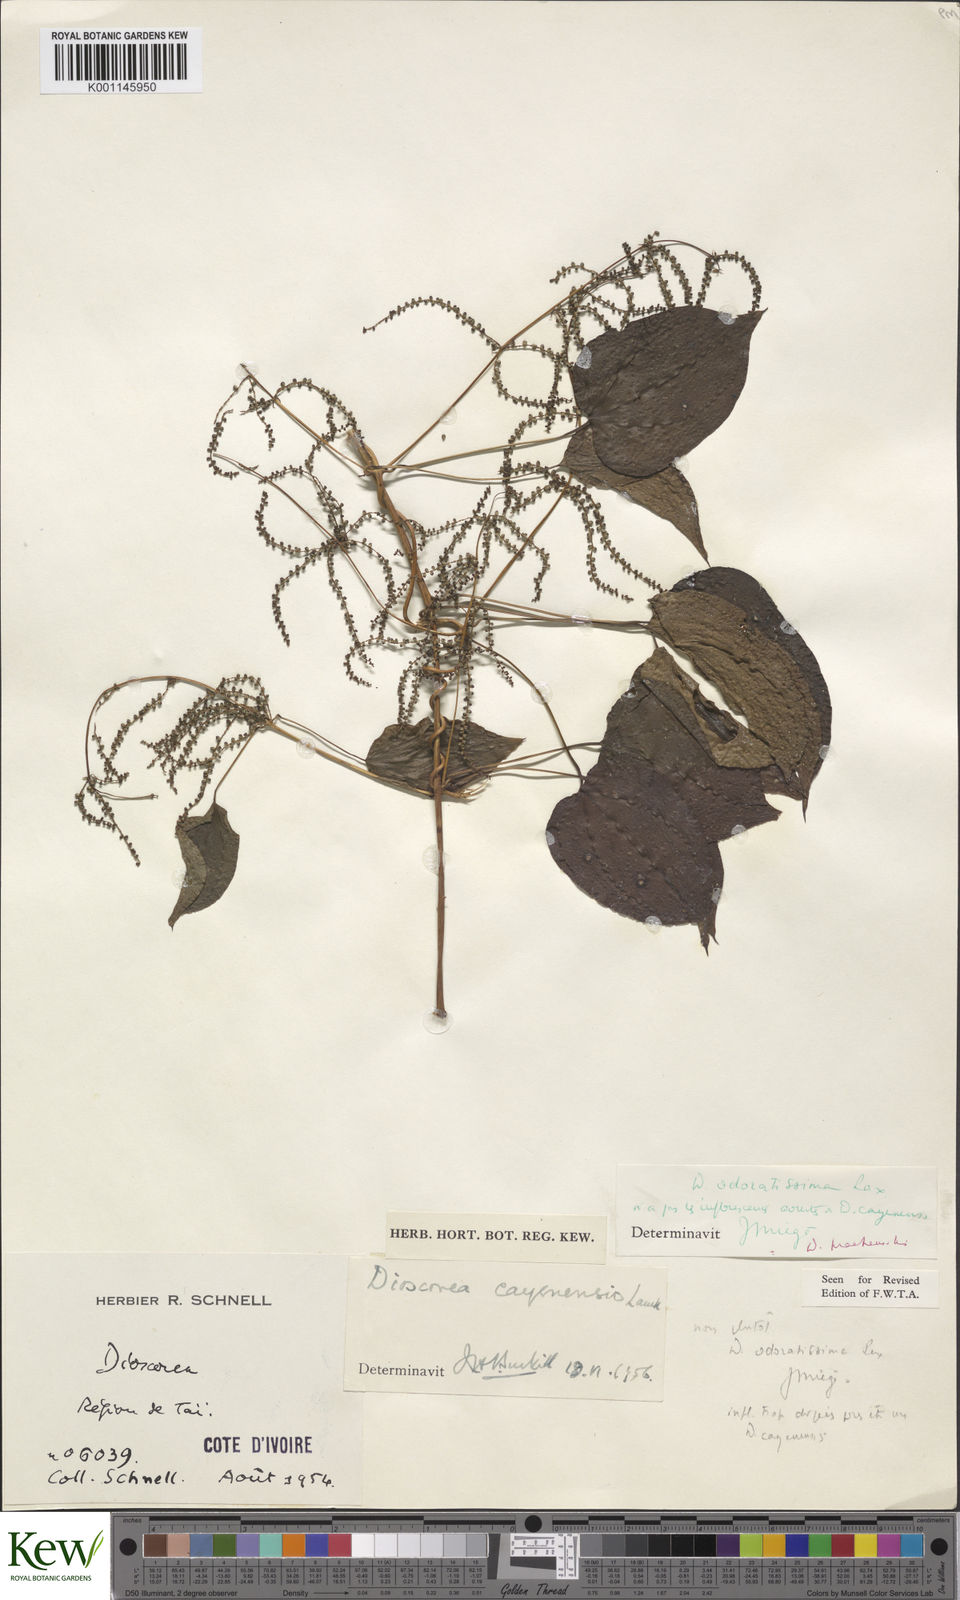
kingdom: Plantae
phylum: Tracheophyta
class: Liliopsida
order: Dioscoreales
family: Dioscoreaceae
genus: Dioscorea
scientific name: Dioscorea praehensilis
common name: Bush yam
